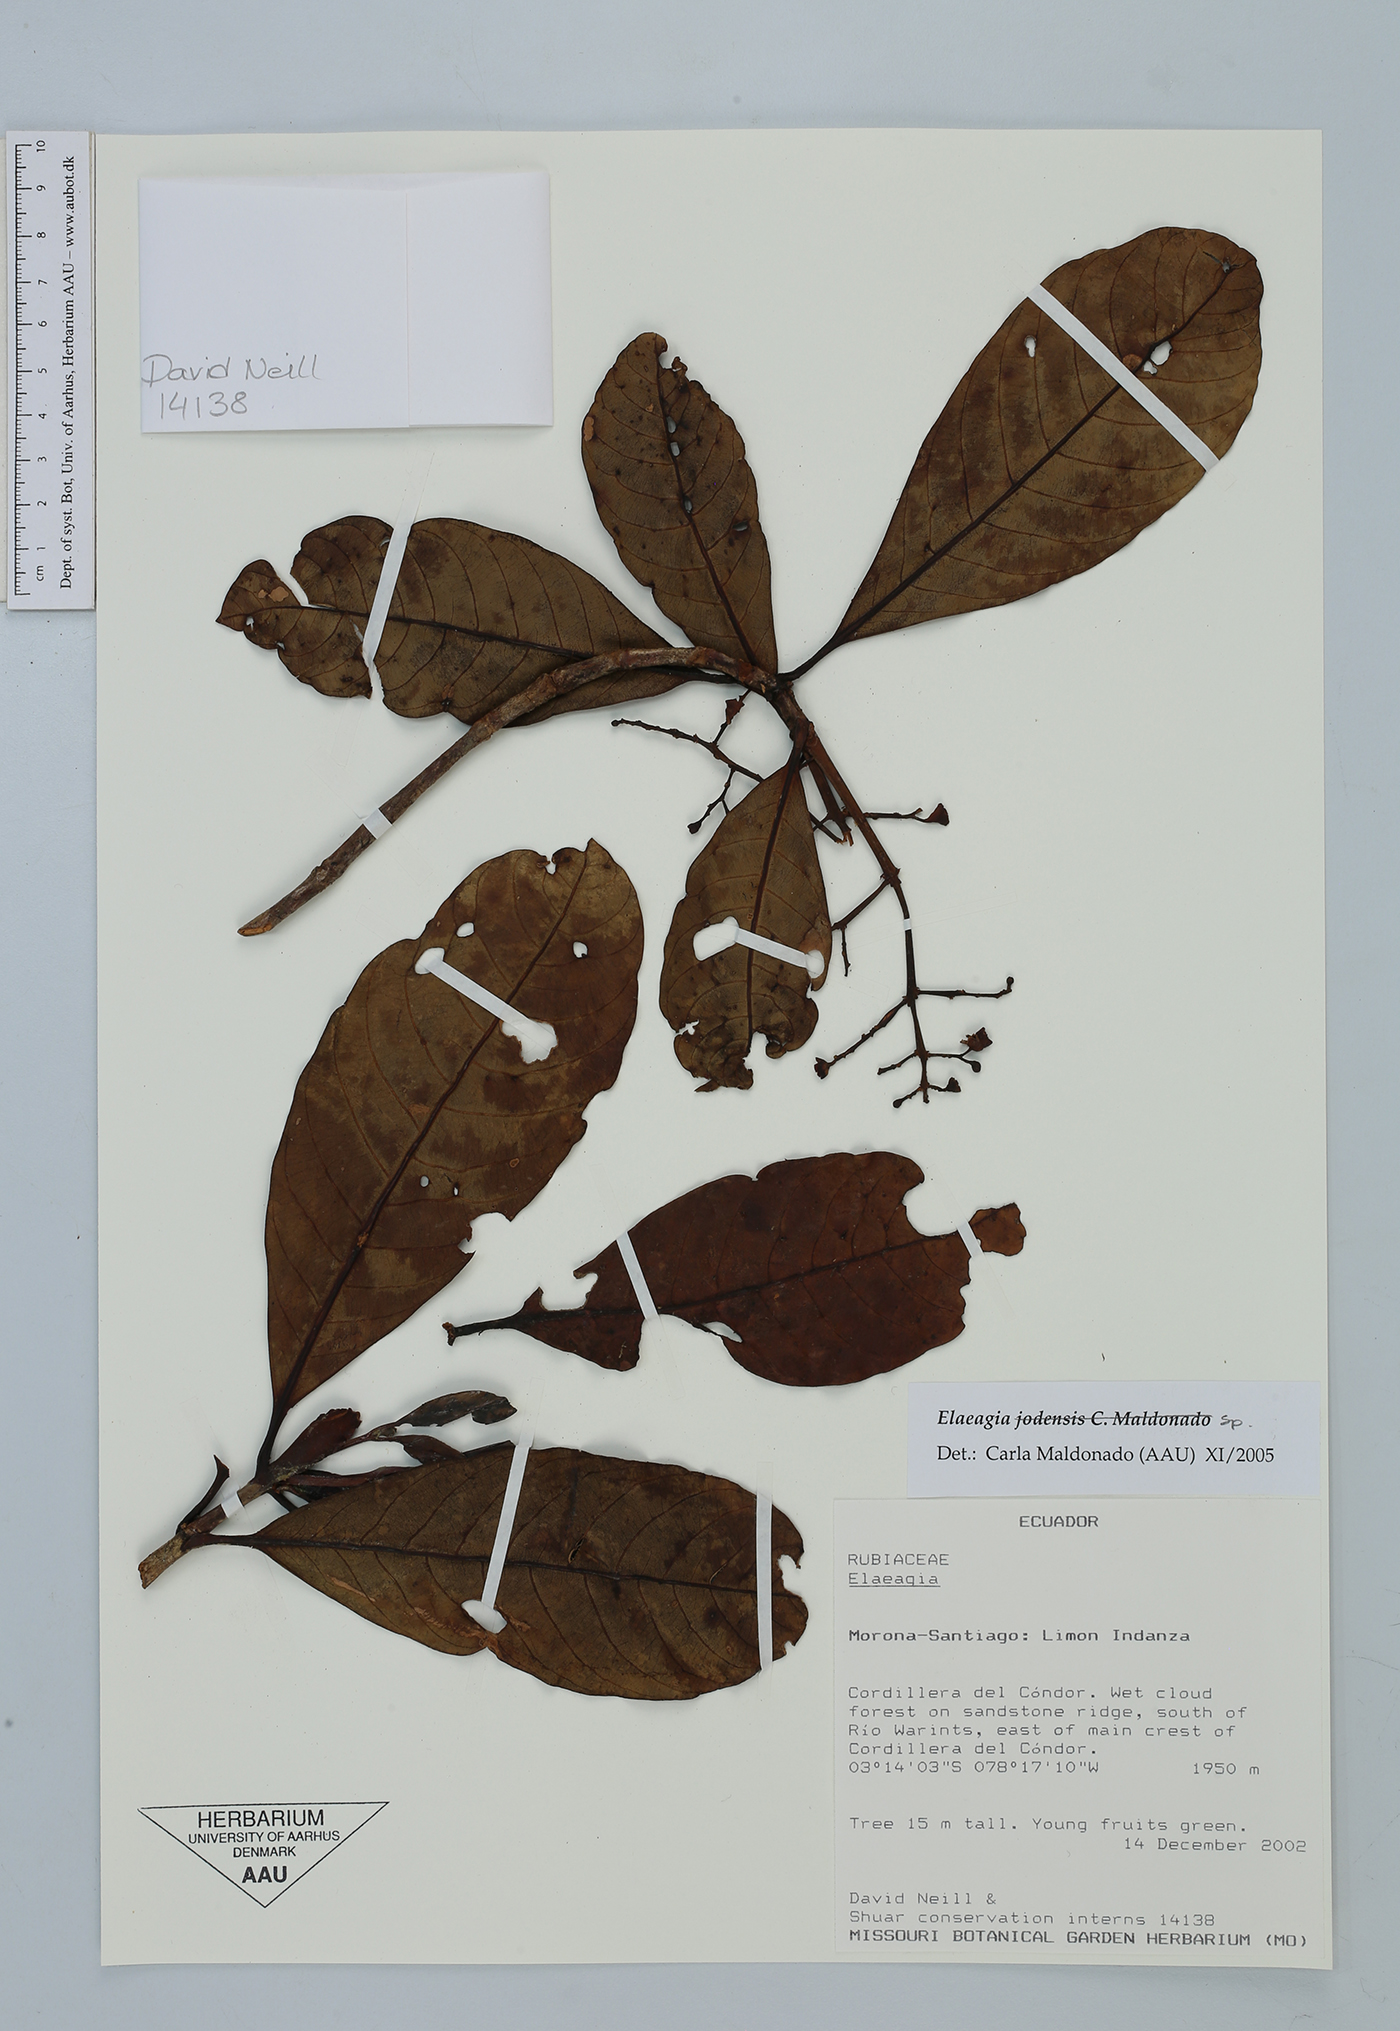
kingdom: Plantae
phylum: Tracheophyta
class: Magnoliopsida
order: Gentianales
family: Rubiaceae
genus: Elaeagia
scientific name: Elaeagia
